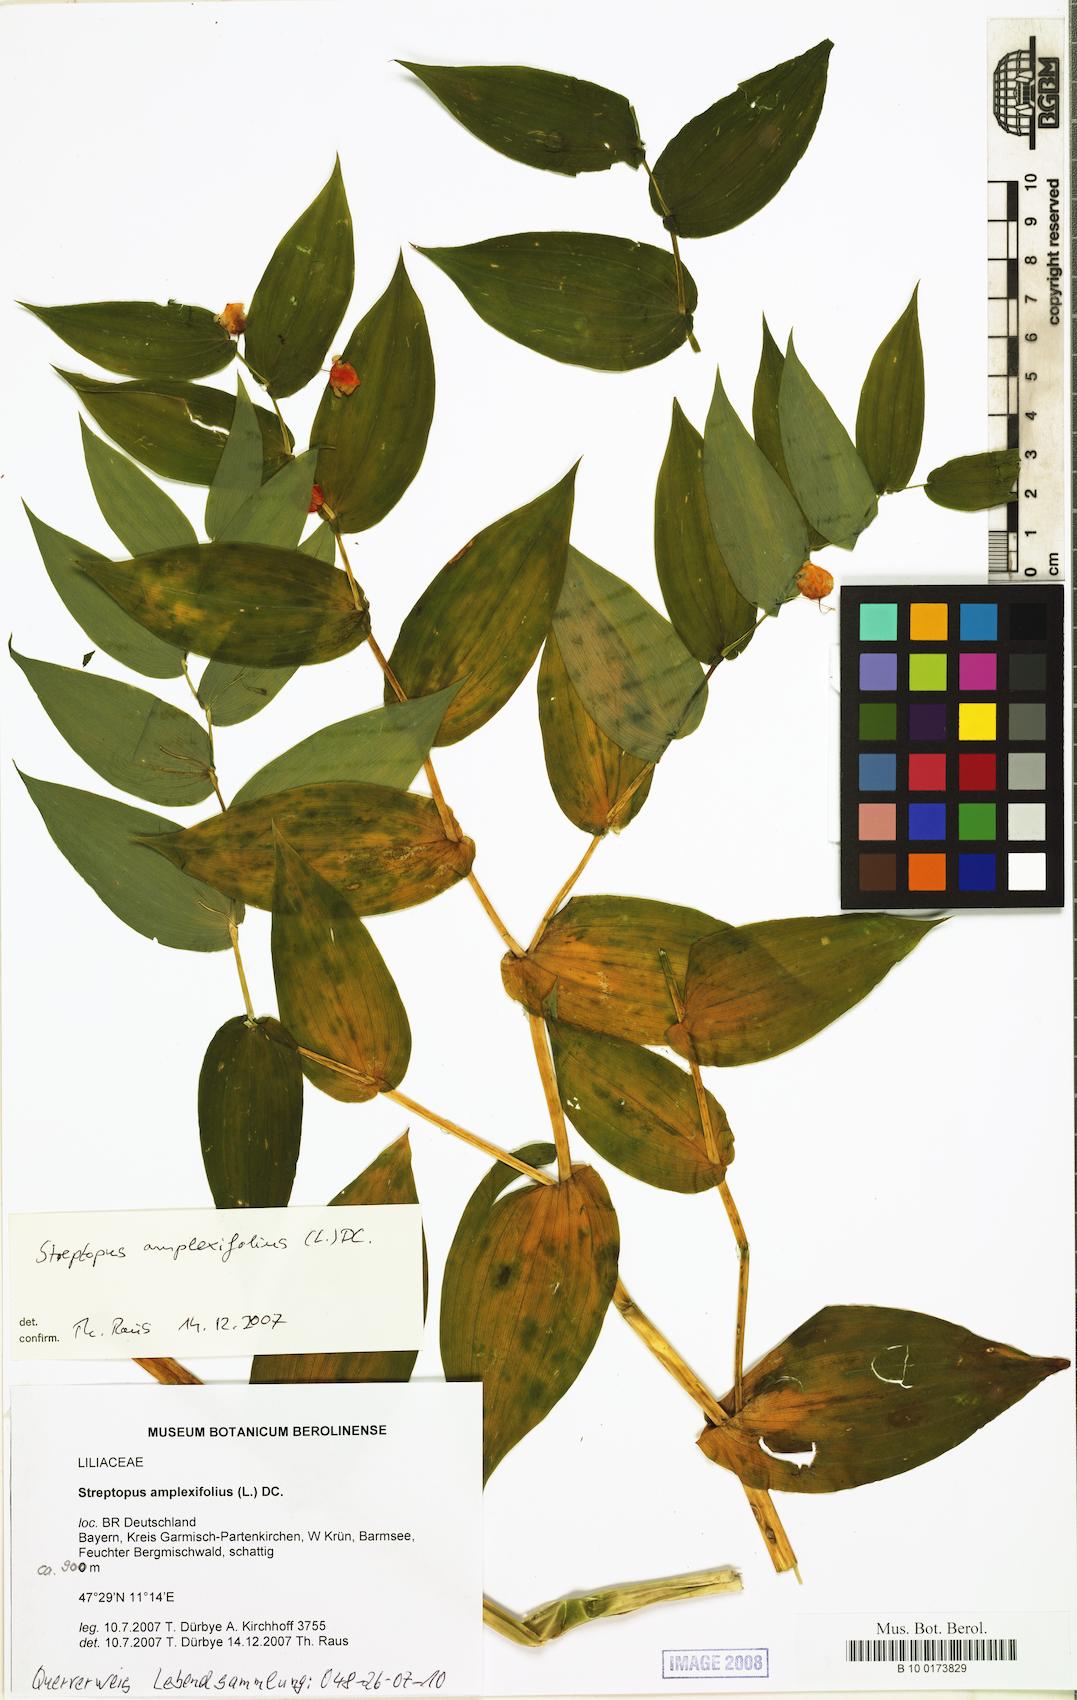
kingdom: Plantae
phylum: Tracheophyta
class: Liliopsida
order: Liliales
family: Liliaceae
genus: Streptopus
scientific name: Streptopus amplexifolius
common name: Clasp twisted stalk
